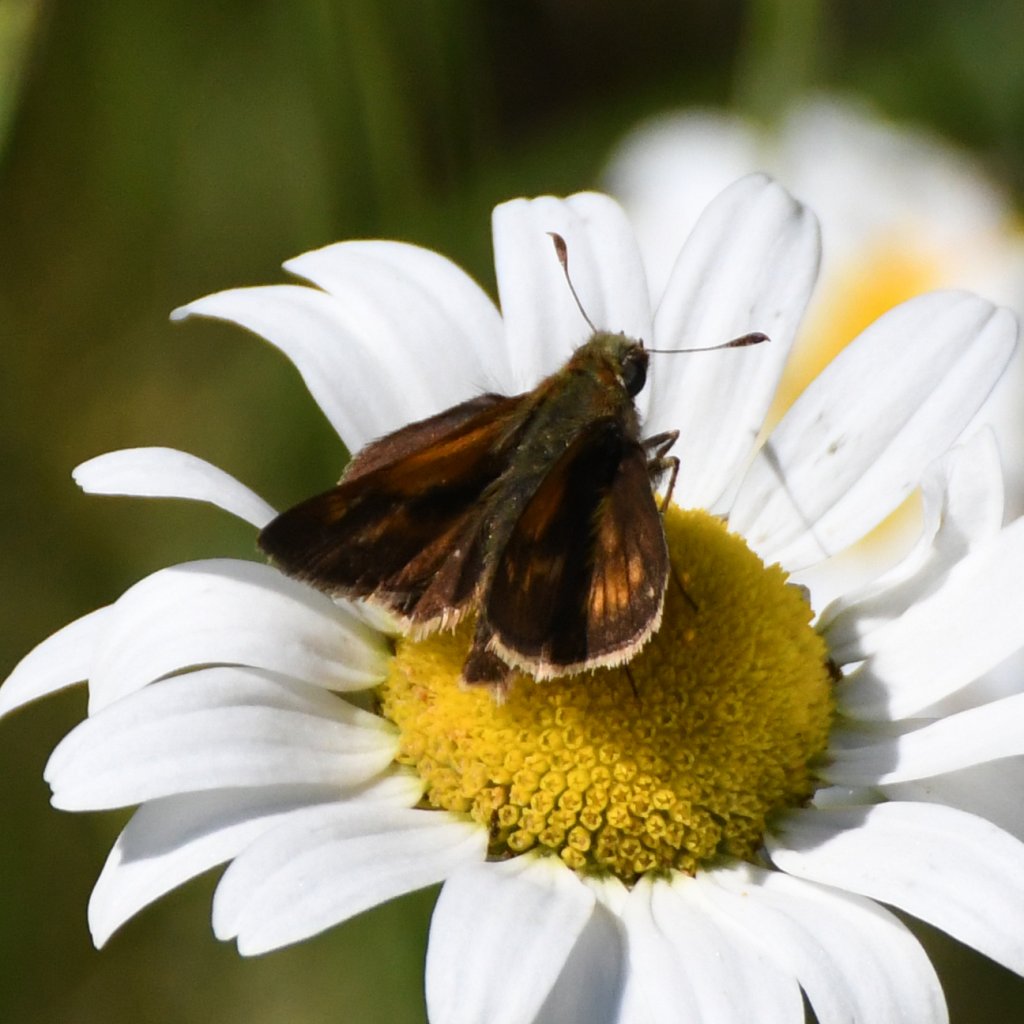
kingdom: Animalia
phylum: Arthropoda
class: Insecta
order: Lepidoptera
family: Hesperiidae
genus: Polites
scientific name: Polites
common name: Long Dash Skipper
